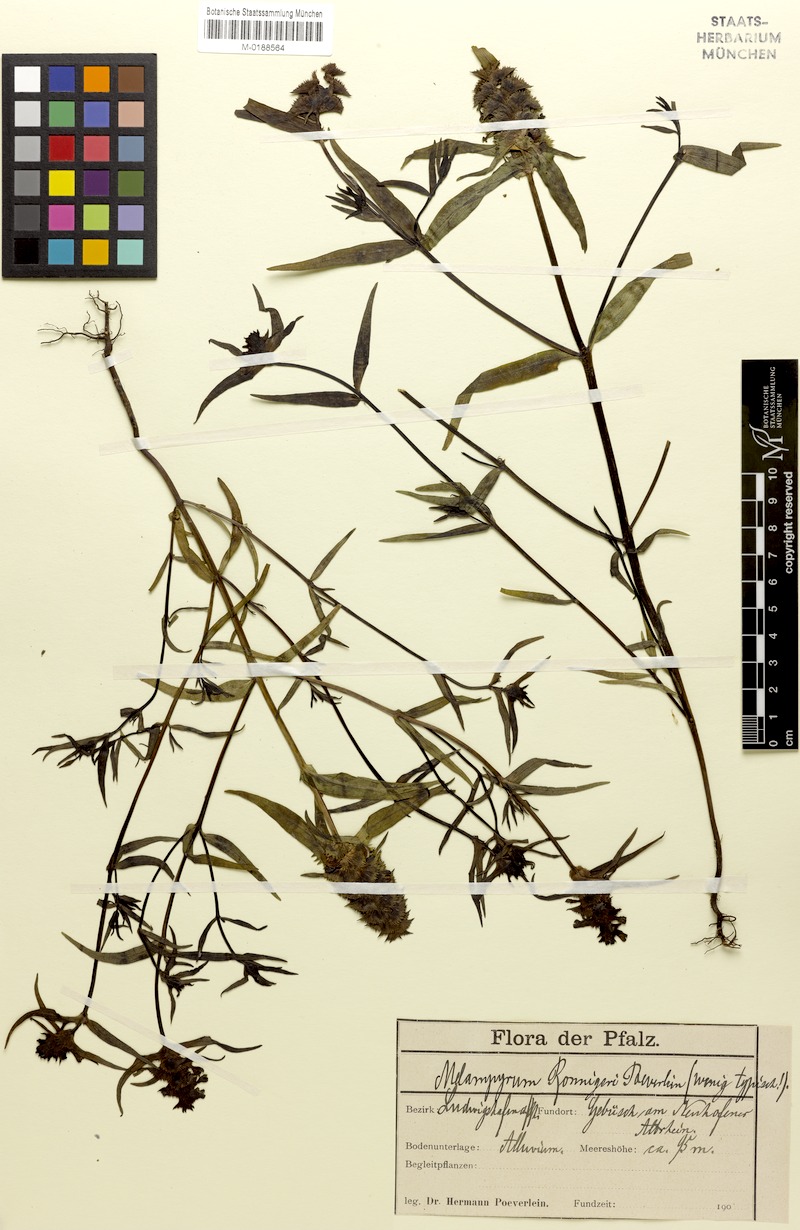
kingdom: Plantae
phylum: Tracheophyta
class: Magnoliopsida
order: Lamiales
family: Orobanchaceae
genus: Melampyrum
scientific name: Melampyrum cristatum
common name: Crested cow-wheat
